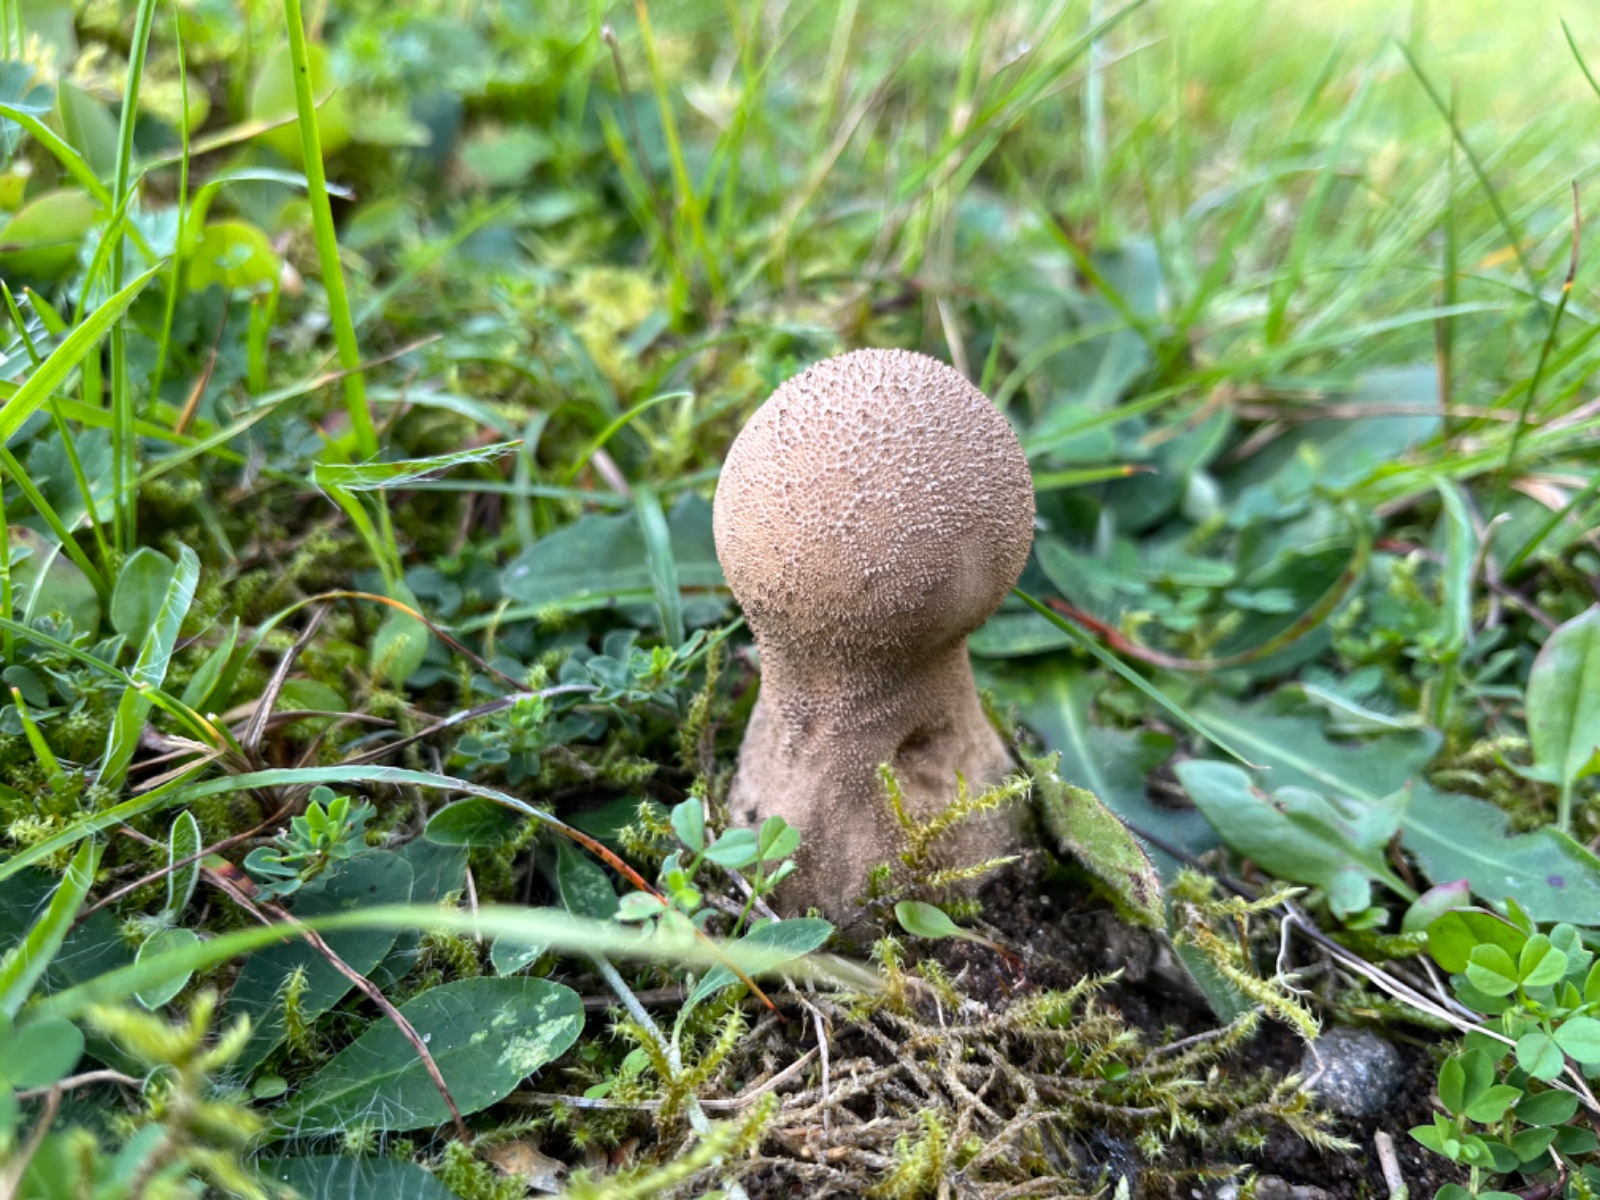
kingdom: Fungi
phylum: Basidiomycota
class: Agaricomycetes
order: Agaricales
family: Lycoperdaceae
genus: Lycoperdon
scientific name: Lycoperdon excipuliforme
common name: højstokket støvbold
